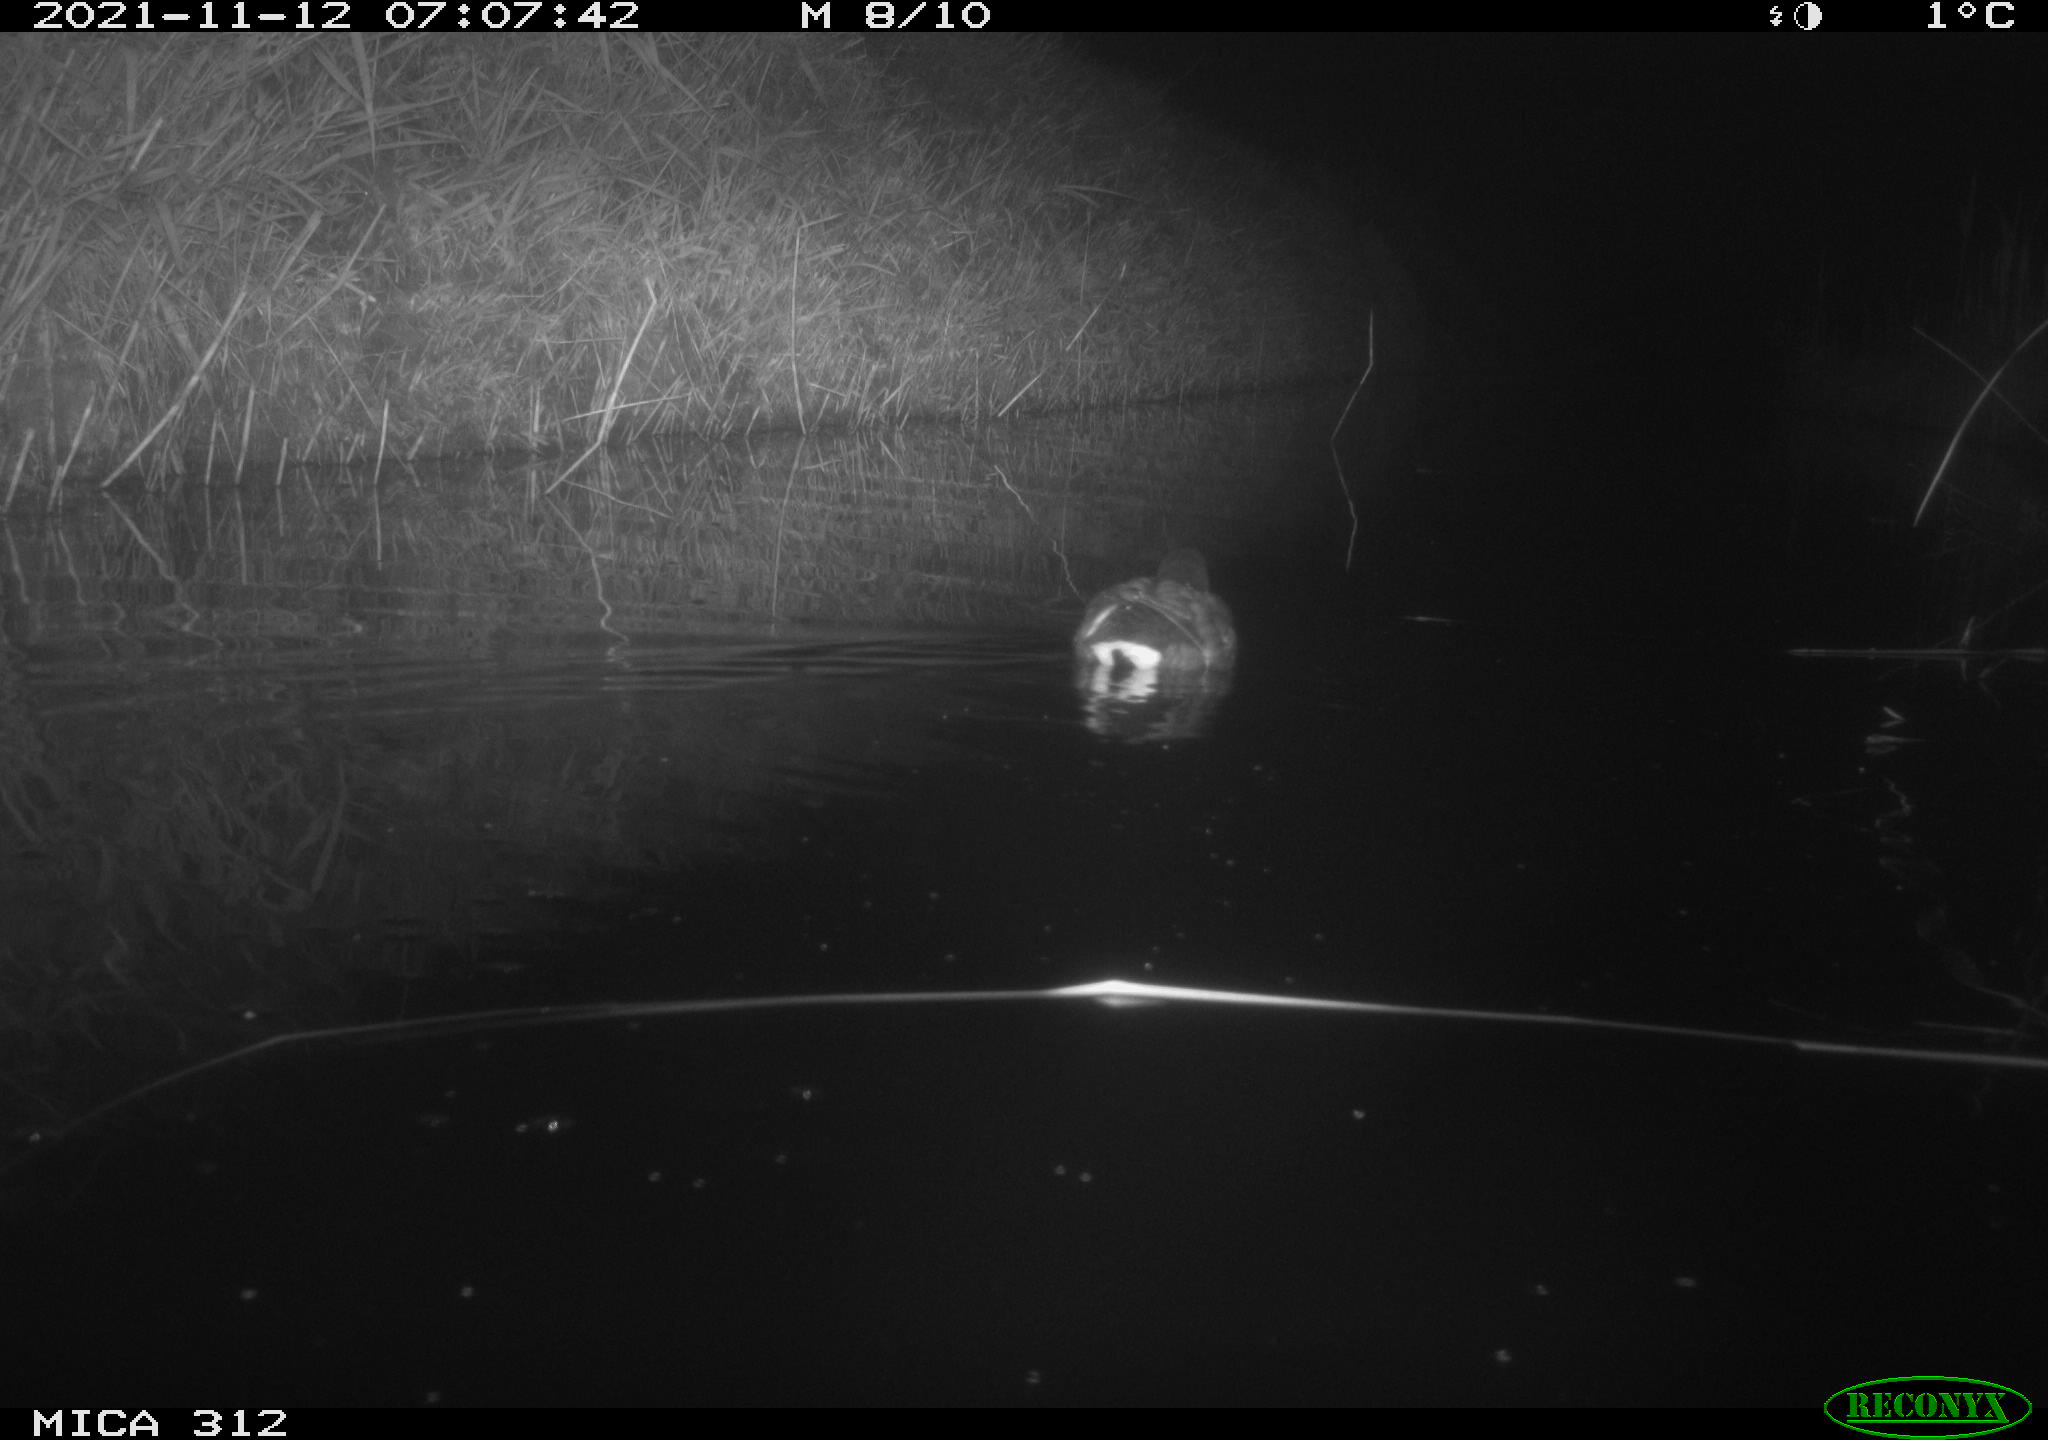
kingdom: Animalia
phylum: Chordata
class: Aves
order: Anseriformes
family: Anatidae
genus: Anas
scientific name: Anas
